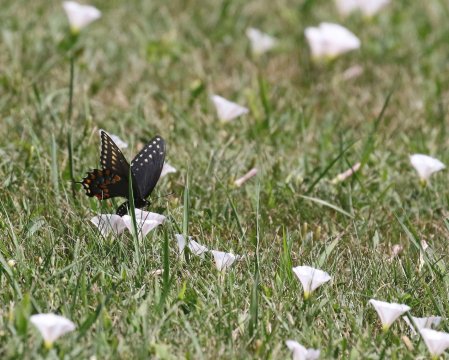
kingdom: Animalia
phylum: Arthropoda
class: Insecta
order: Lepidoptera
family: Papilionidae
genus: Papilio
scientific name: Papilio polyxenes
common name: Black Swallowtail
